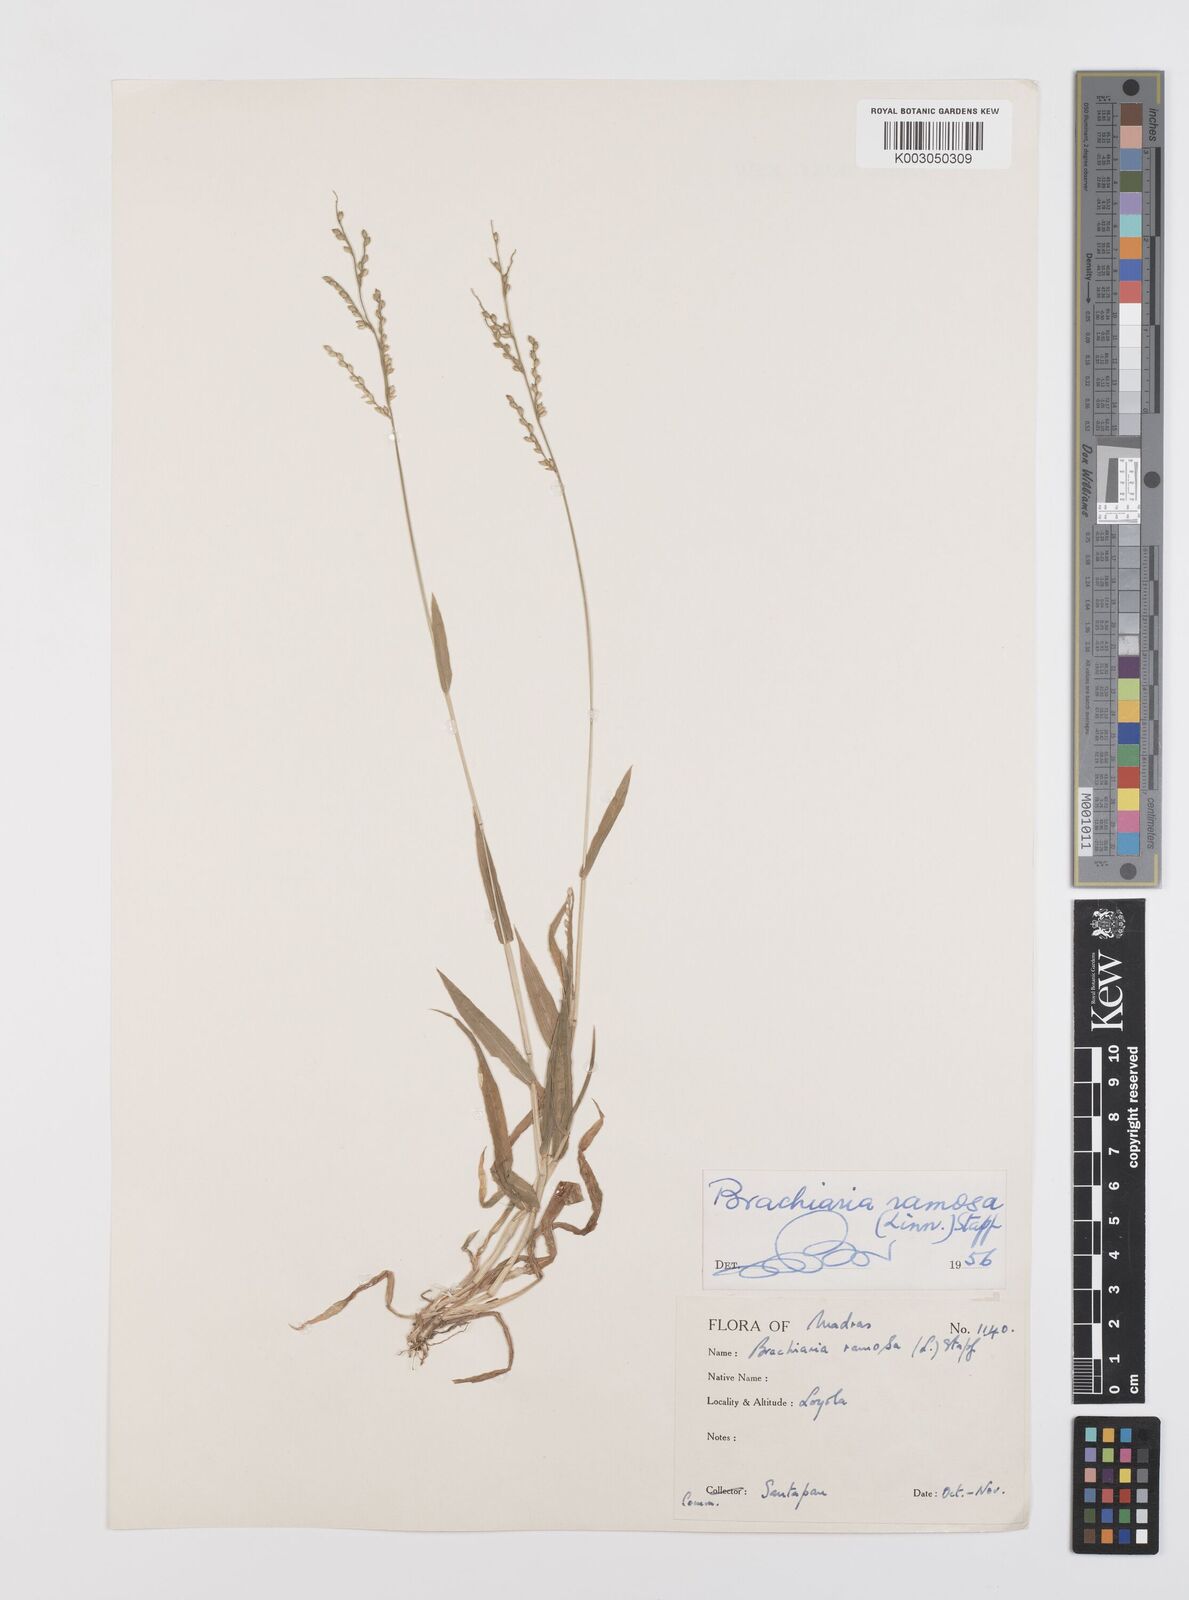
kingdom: Plantae
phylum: Tracheophyta
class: Liliopsida
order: Poales
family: Poaceae
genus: Urochloa
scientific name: Urochloa ramosa
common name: Browntop millet
